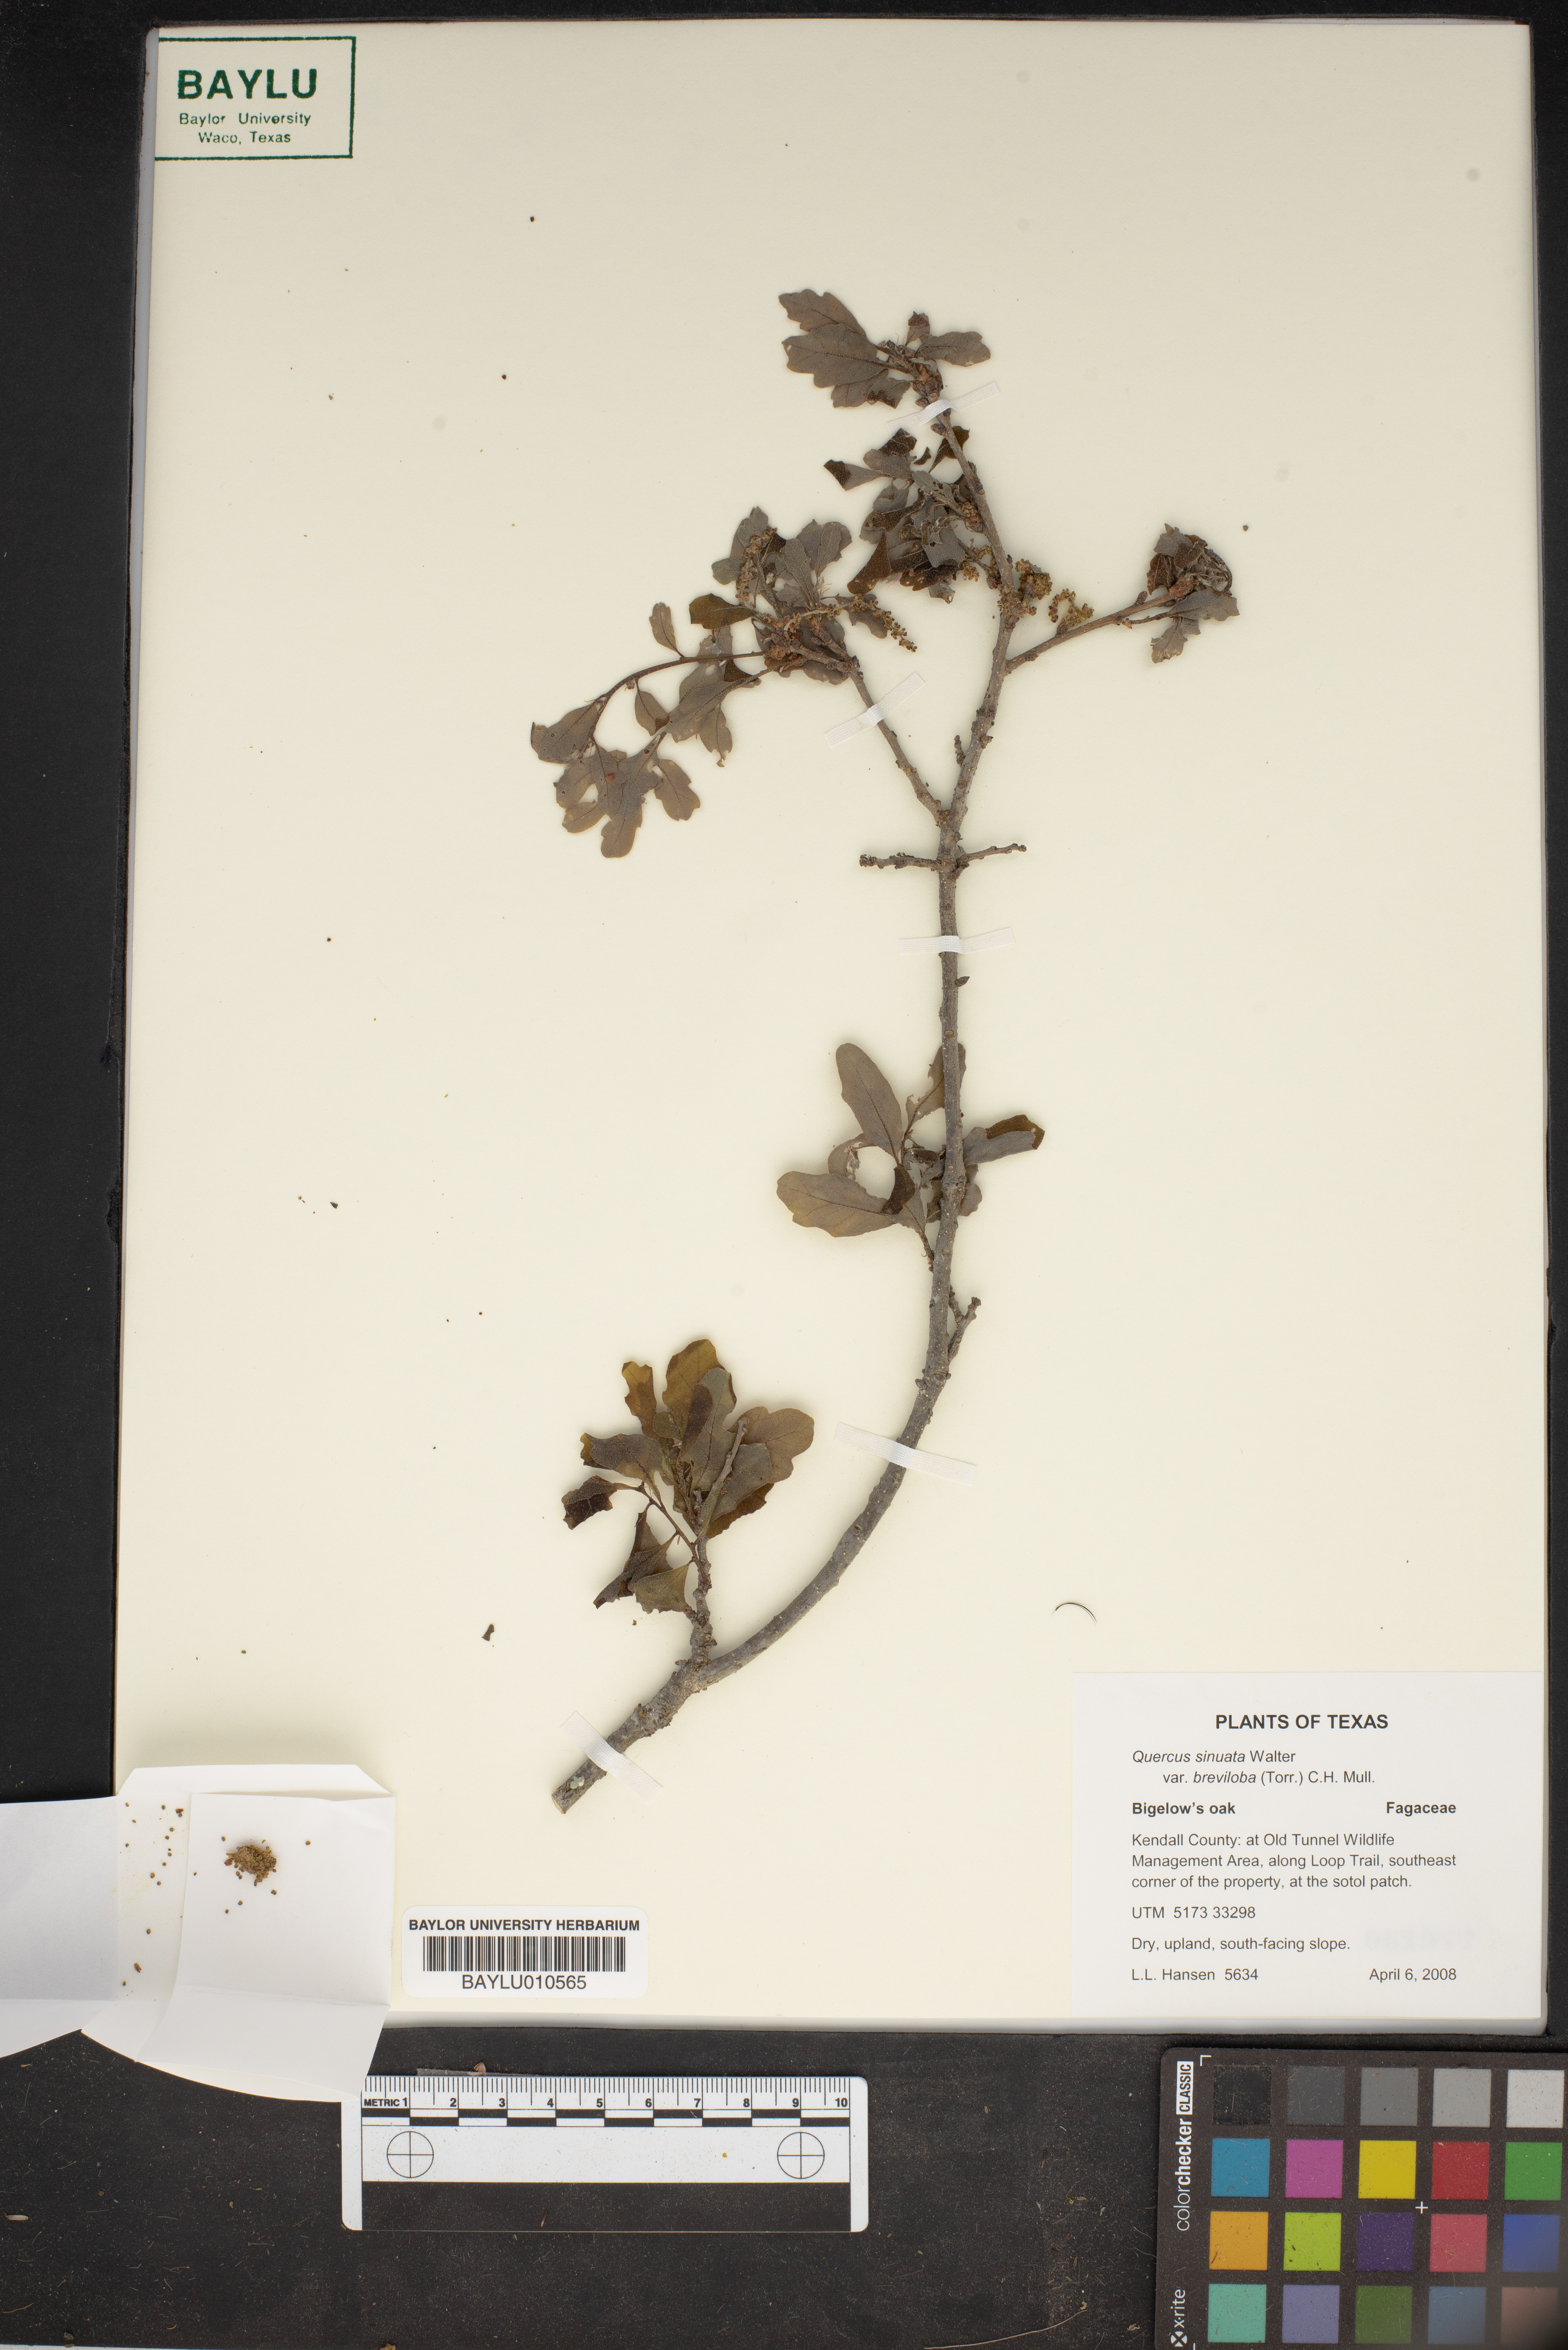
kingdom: Plantae
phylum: Tracheophyta
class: Magnoliopsida
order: Fagales
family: Fagaceae
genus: Quercus
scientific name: Quercus sinuata
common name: Durand oak
